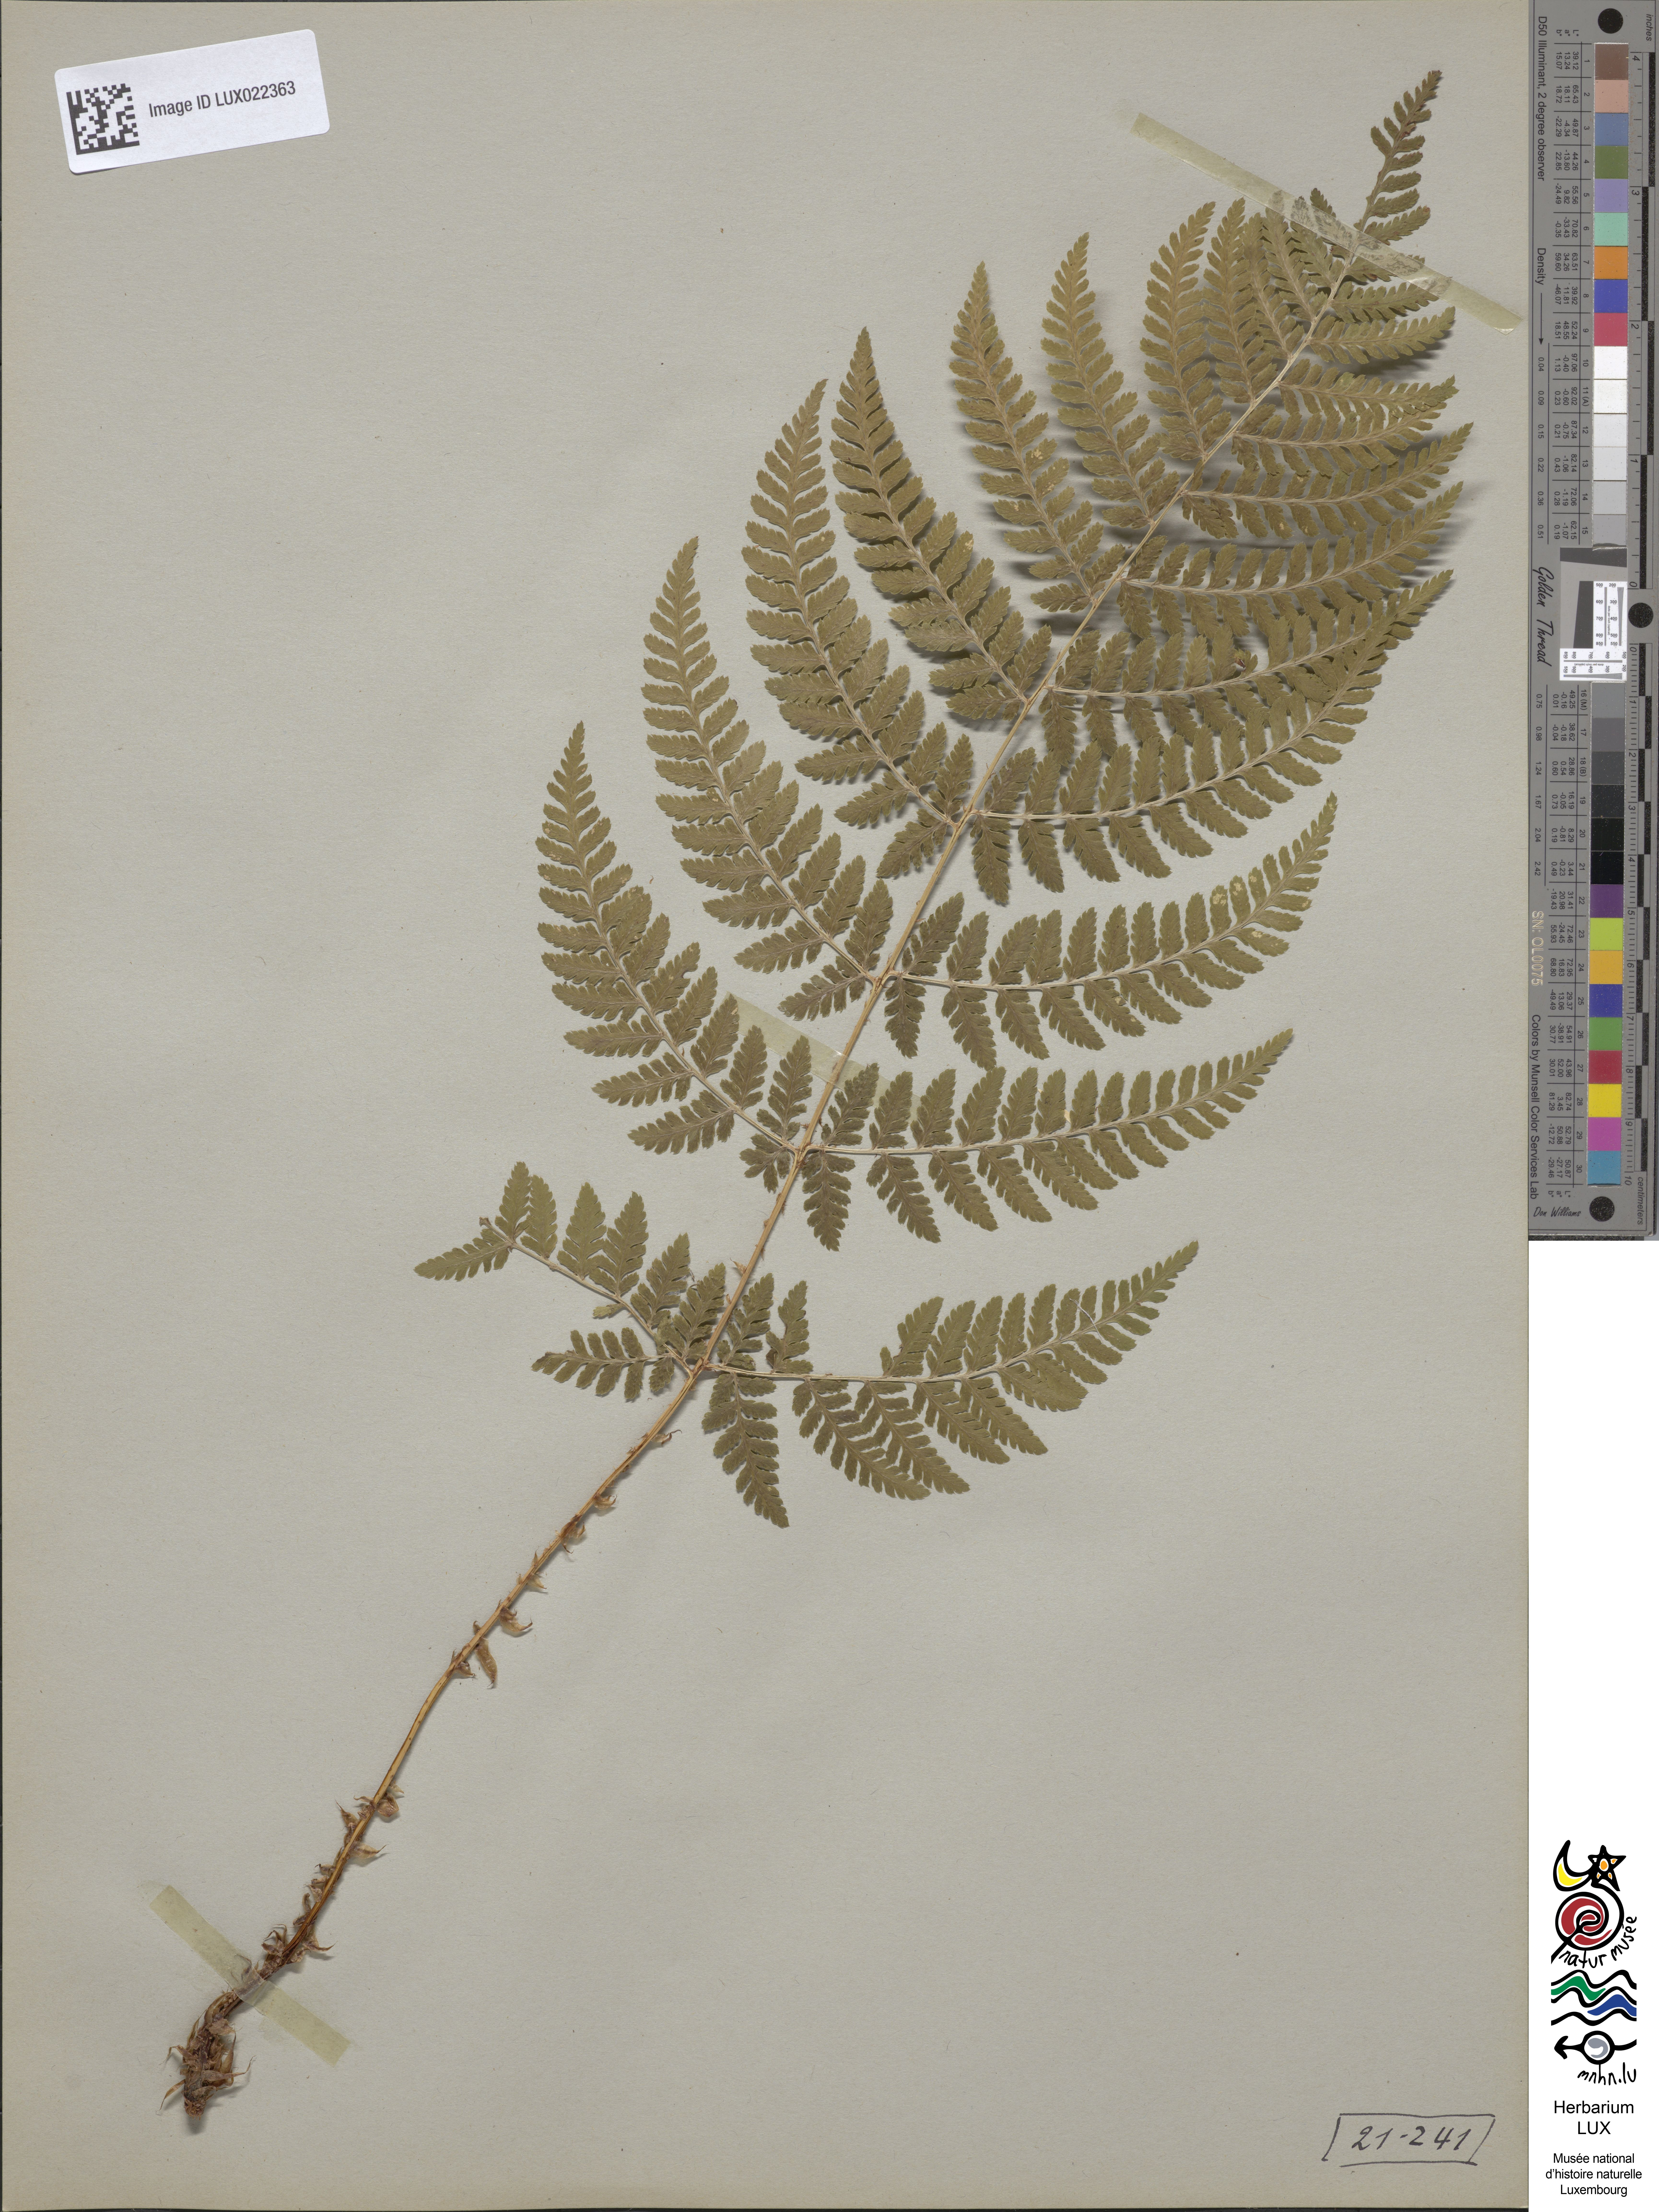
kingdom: Plantae
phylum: Tracheophyta
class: Polypodiopsida
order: Polypodiales
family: Dryopteridaceae
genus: Dryopteris
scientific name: Dryopteris carthusiana
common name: Narrow buckler-fern
